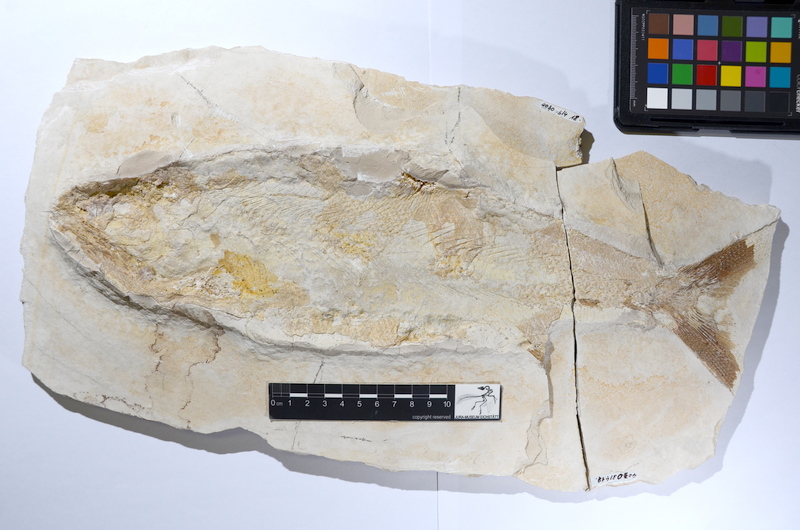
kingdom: Animalia
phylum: Chordata
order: Amiiformes
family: Caturidae
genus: Caturus
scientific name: Caturus furcatus
